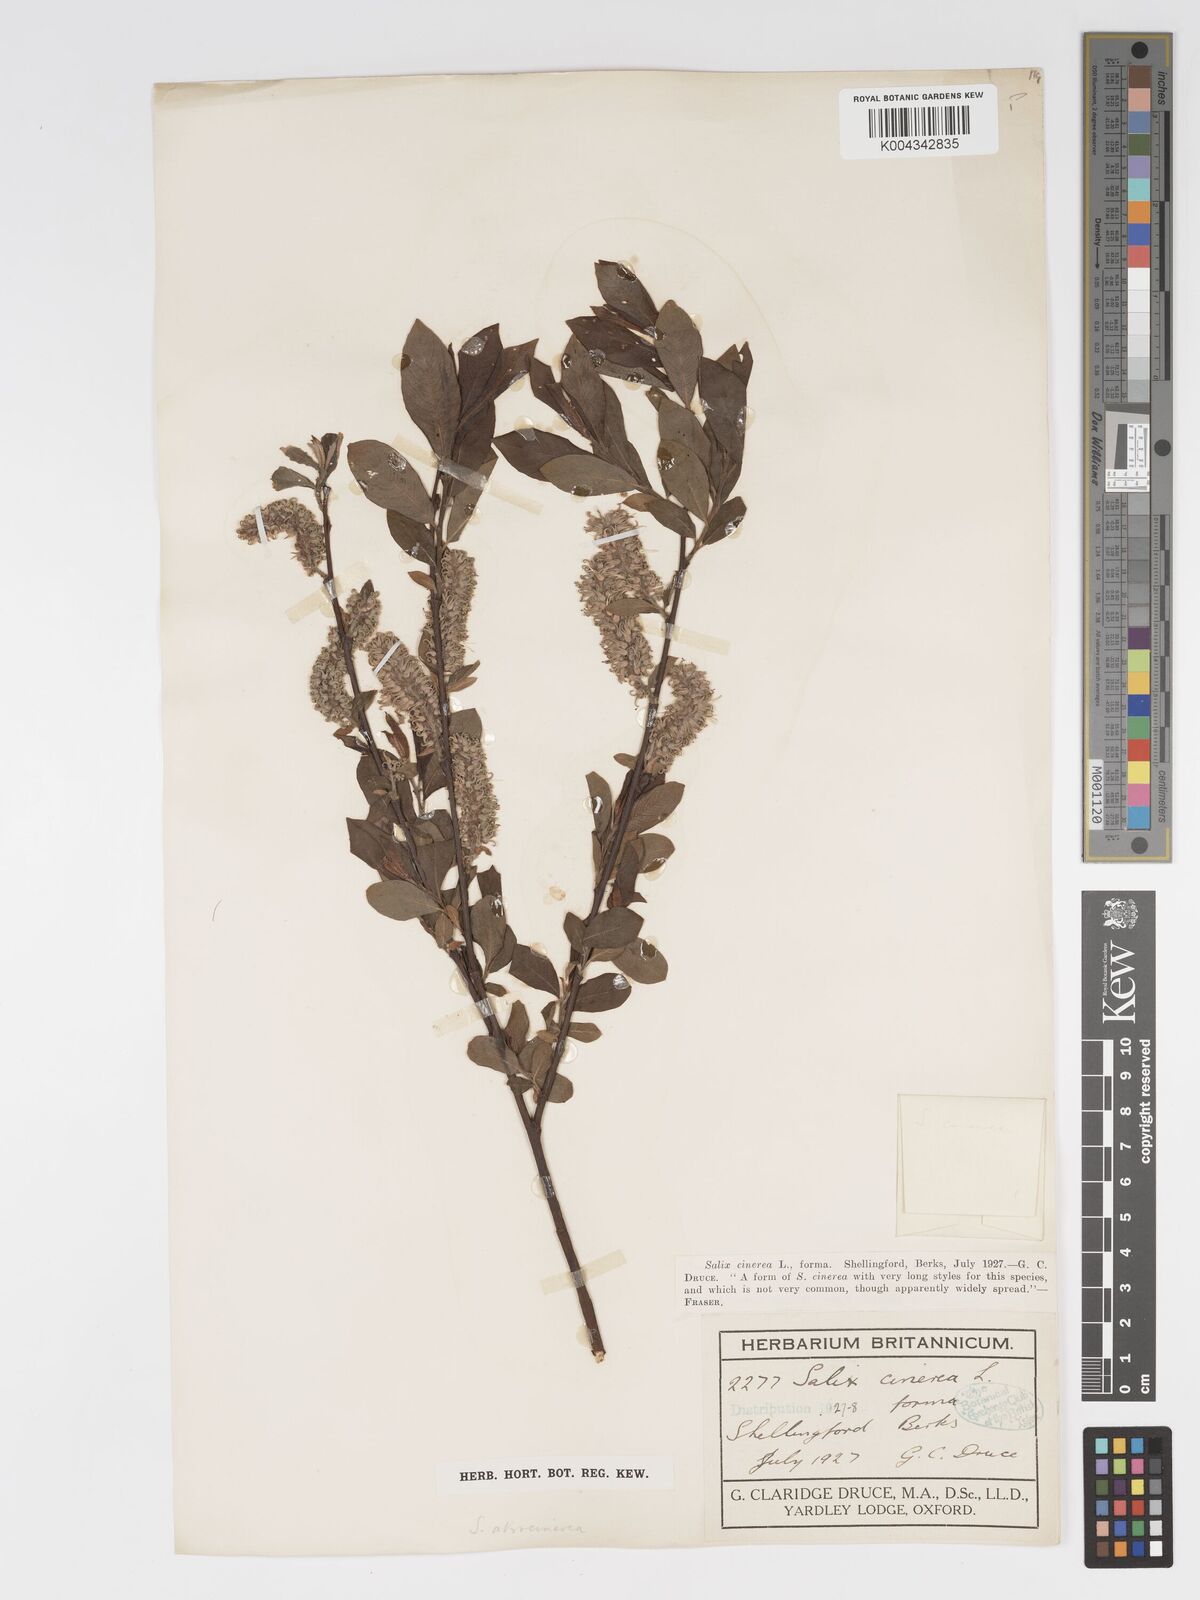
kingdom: Plantae
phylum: Tracheophyta
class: Magnoliopsida
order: Malpighiales
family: Salicaceae
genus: Salix
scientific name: Salix atrocinerea
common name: Rusty willow
